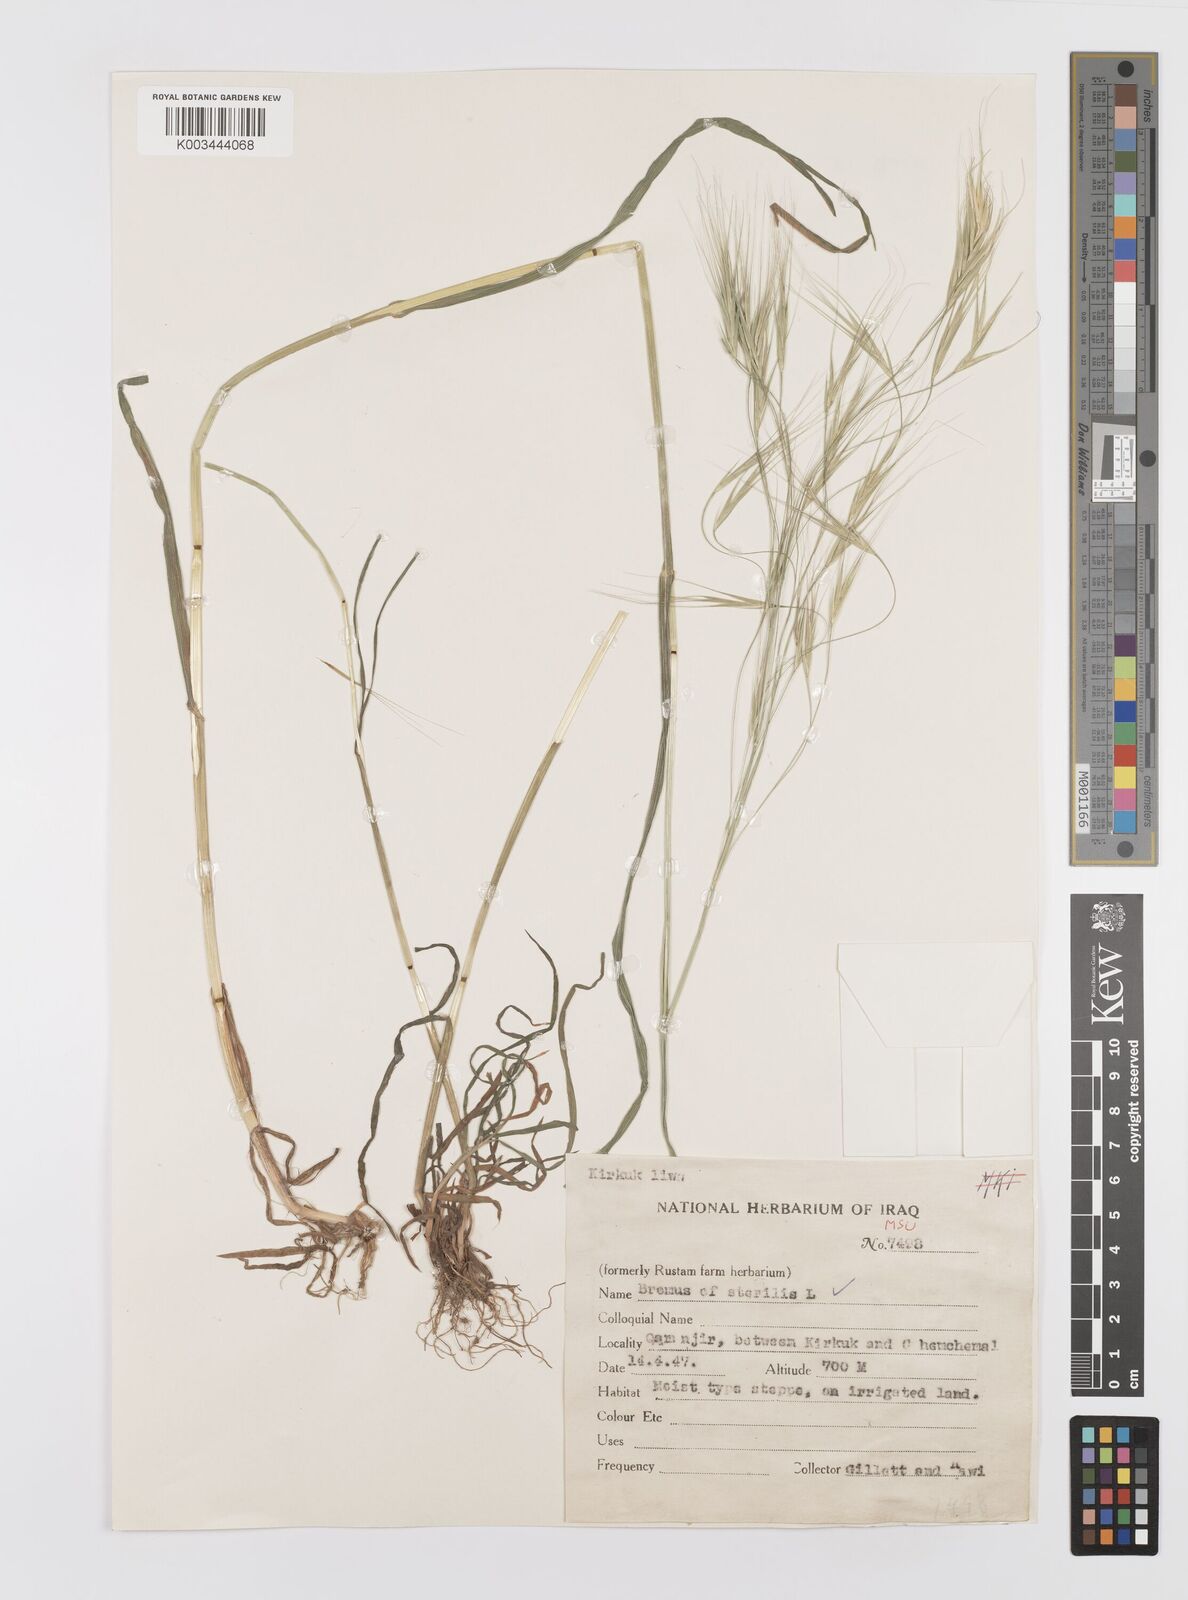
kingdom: Plantae
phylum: Tracheophyta
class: Liliopsida
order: Poales
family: Poaceae
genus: Bromus
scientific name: Bromus sterilis
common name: Poverty brome
